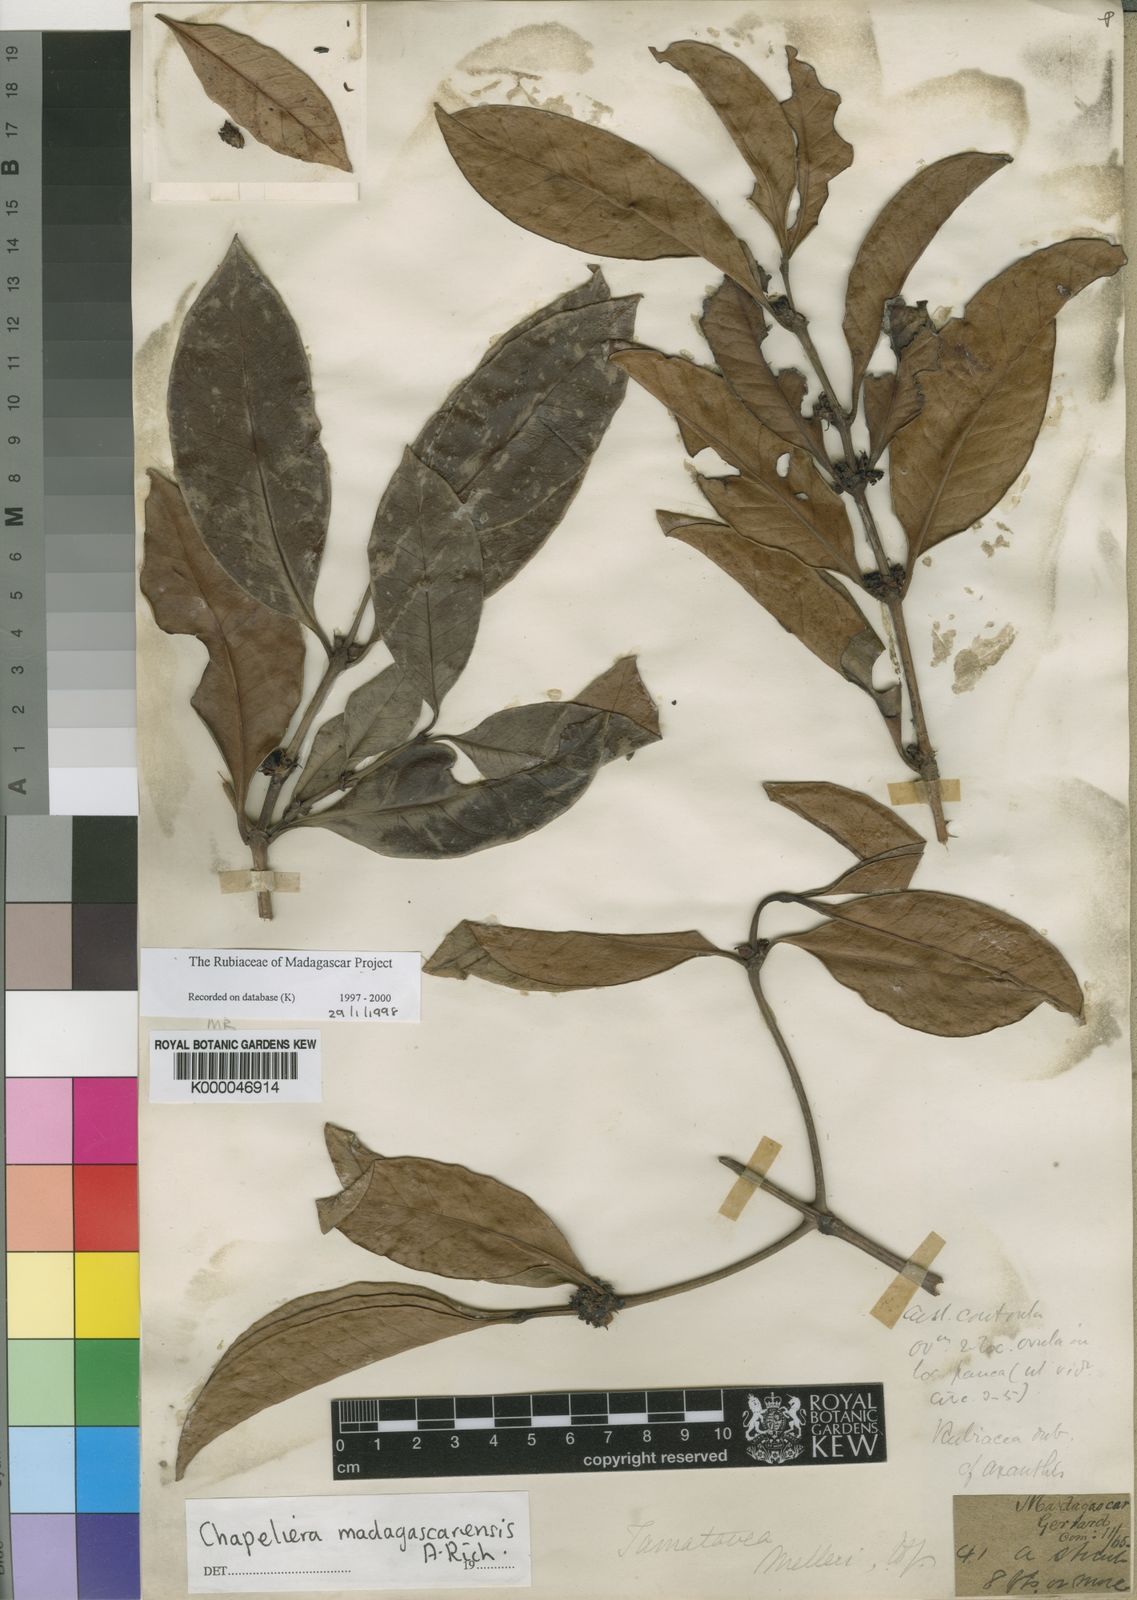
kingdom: Plantae
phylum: Tracheophyta
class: Magnoliopsida
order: Gentianales
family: Rubiaceae
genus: Chapelieria
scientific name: Chapelieria madagascariensis
